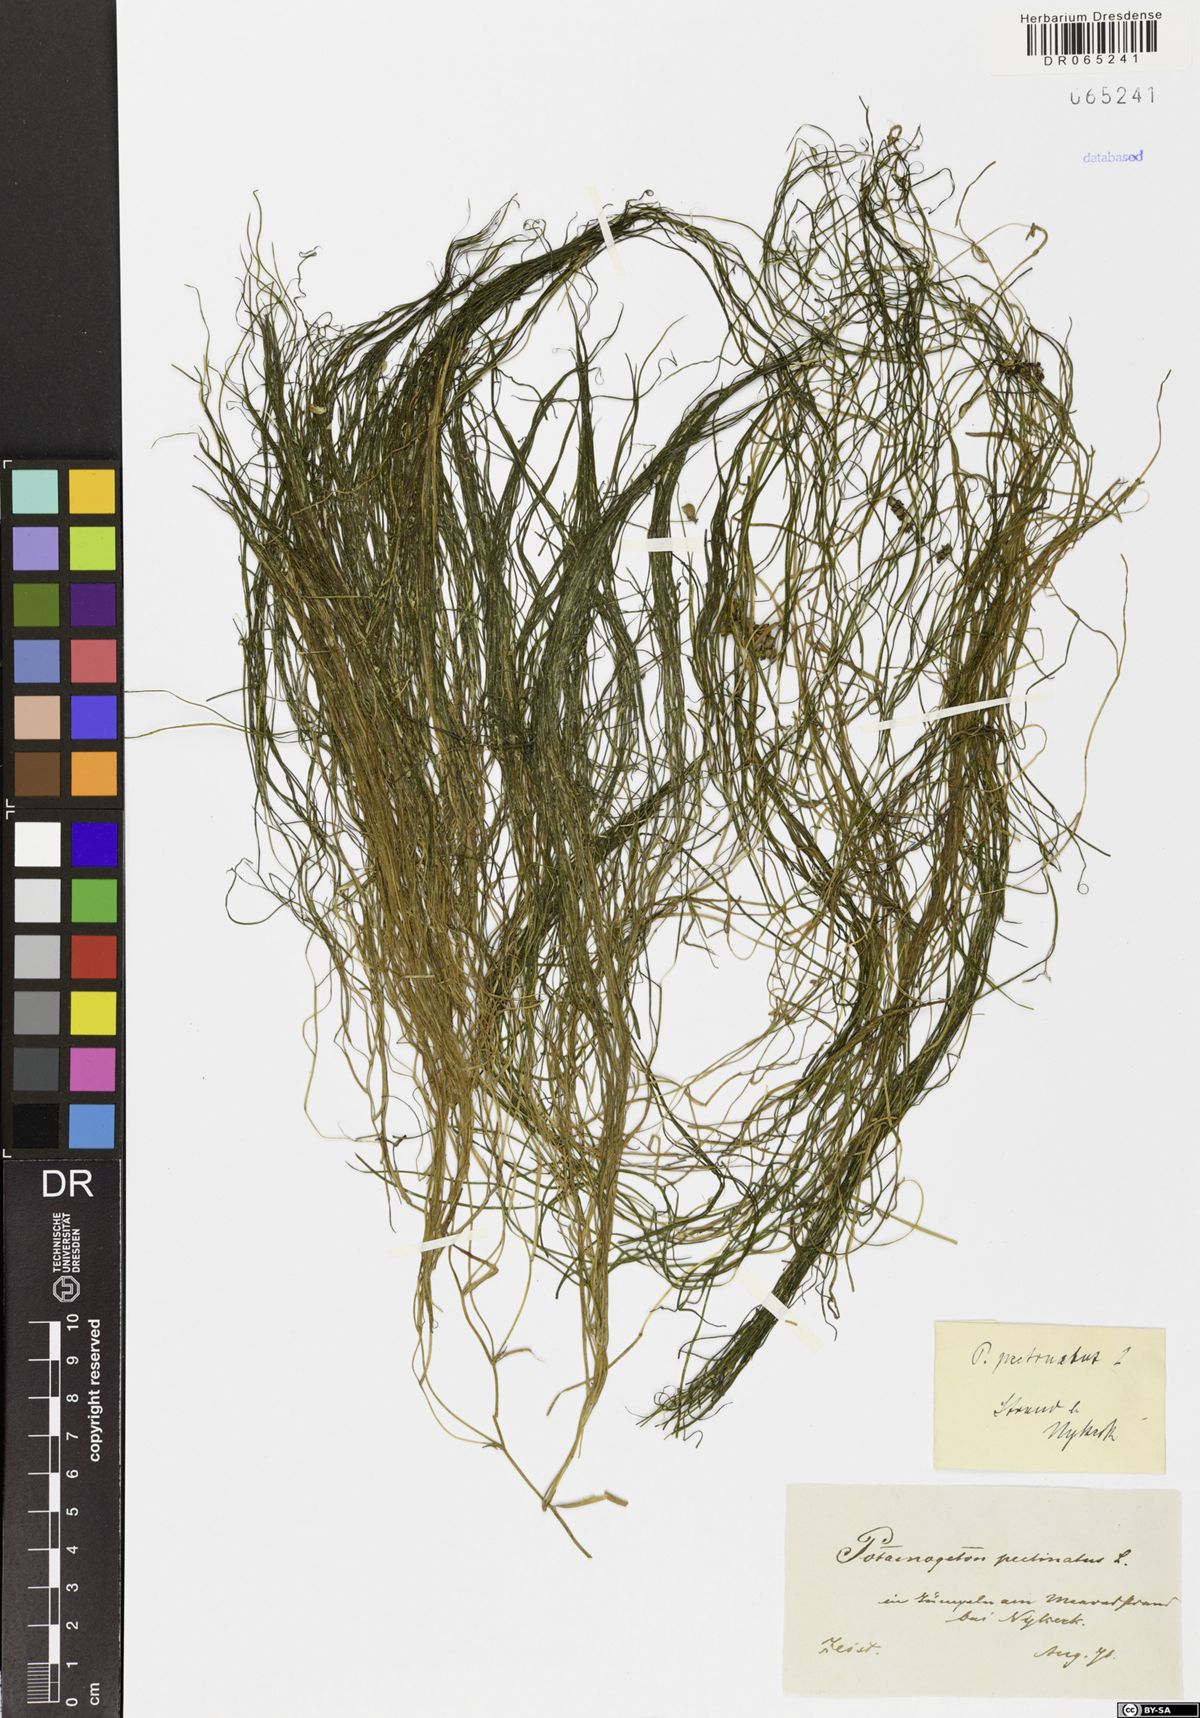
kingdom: Plantae
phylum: Tracheophyta
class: Liliopsida
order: Alismatales
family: Potamogetonaceae
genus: Stuckenia
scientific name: Stuckenia pectinata
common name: Sago pondweed
